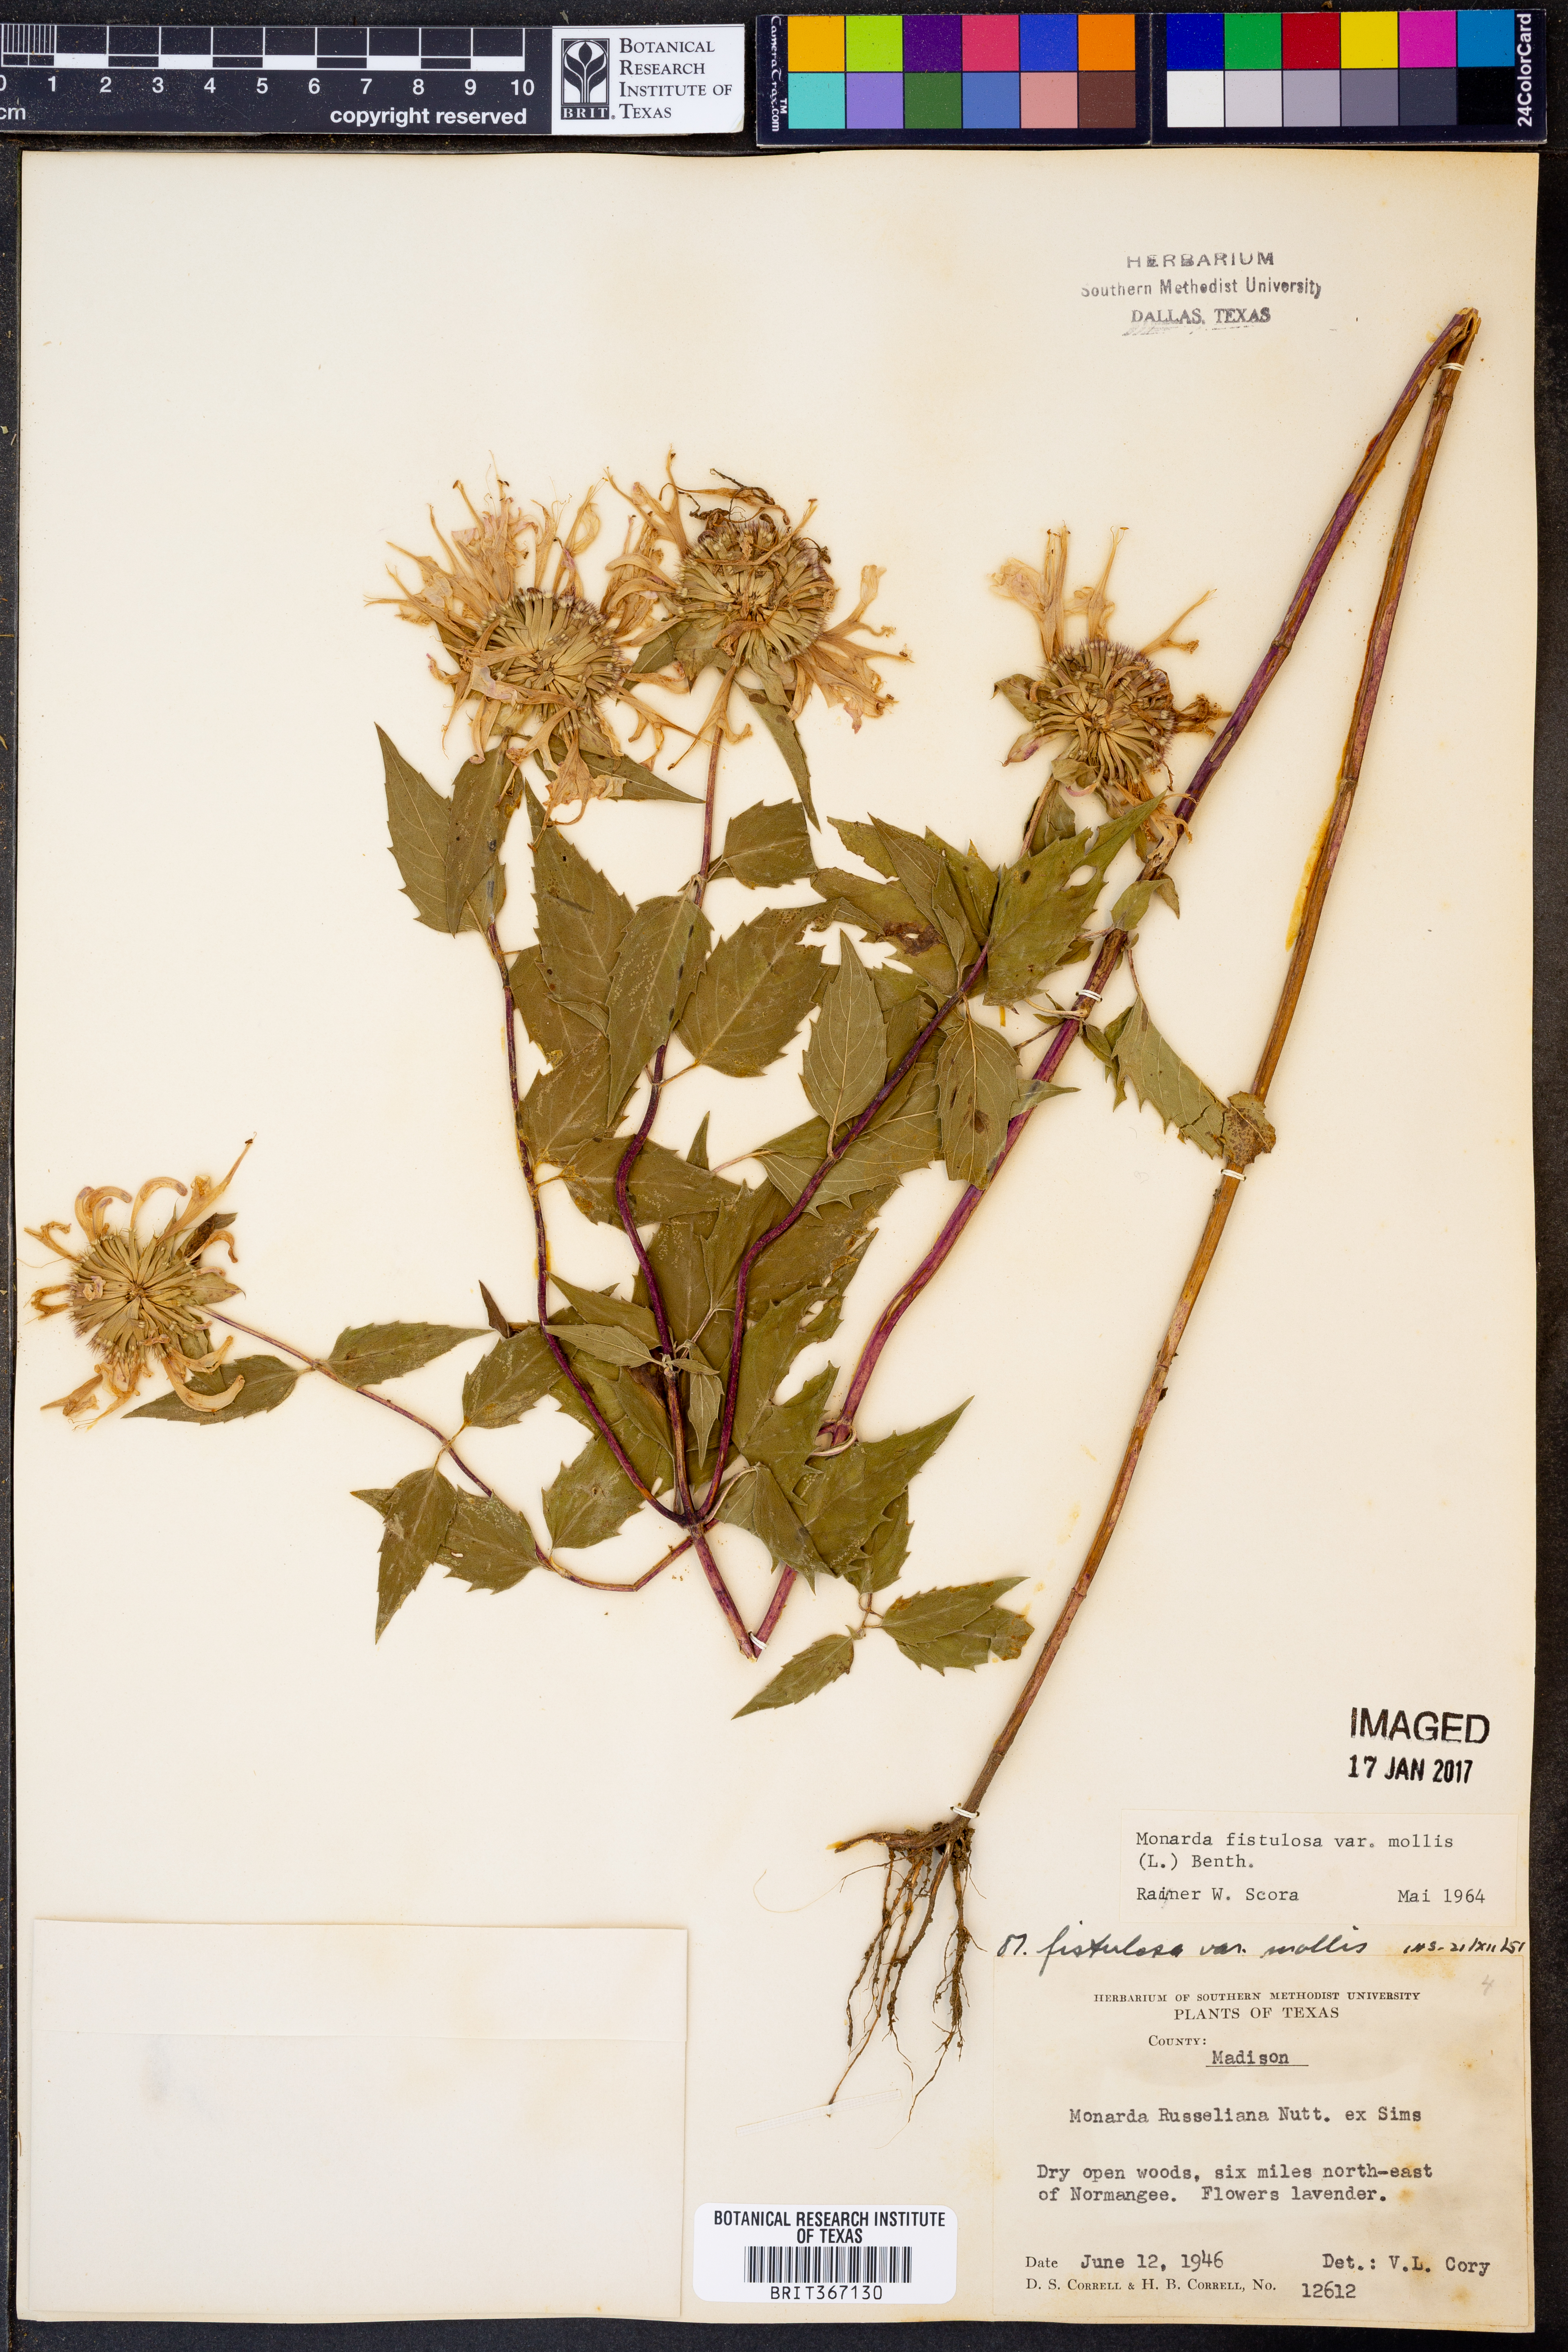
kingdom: Plantae
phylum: Tracheophyta
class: Magnoliopsida
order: Lamiales
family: Lamiaceae
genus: Monarda
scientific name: Monarda fistulosa
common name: Purple beebalm
